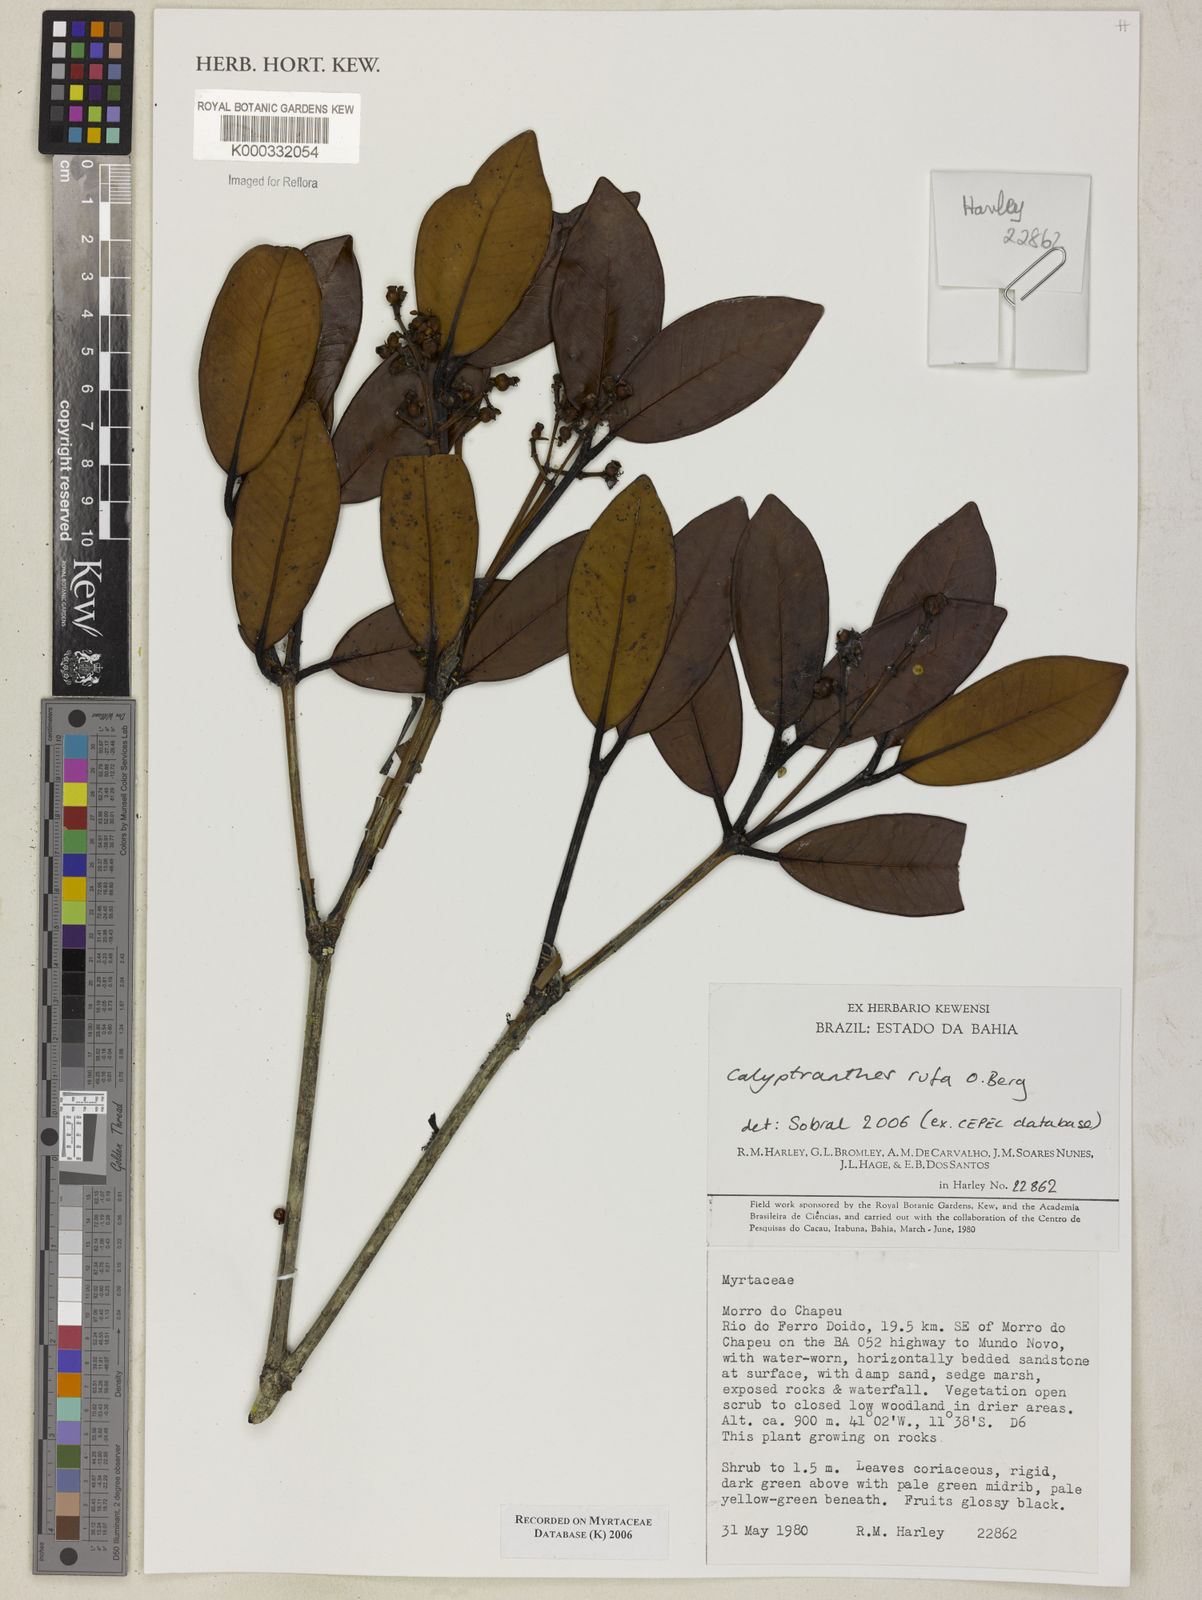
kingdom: Plantae
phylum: Tracheophyta
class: Magnoliopsida
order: Myrtales
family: Myrtaceae
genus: Calyptranthes
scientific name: Calyptranthes
